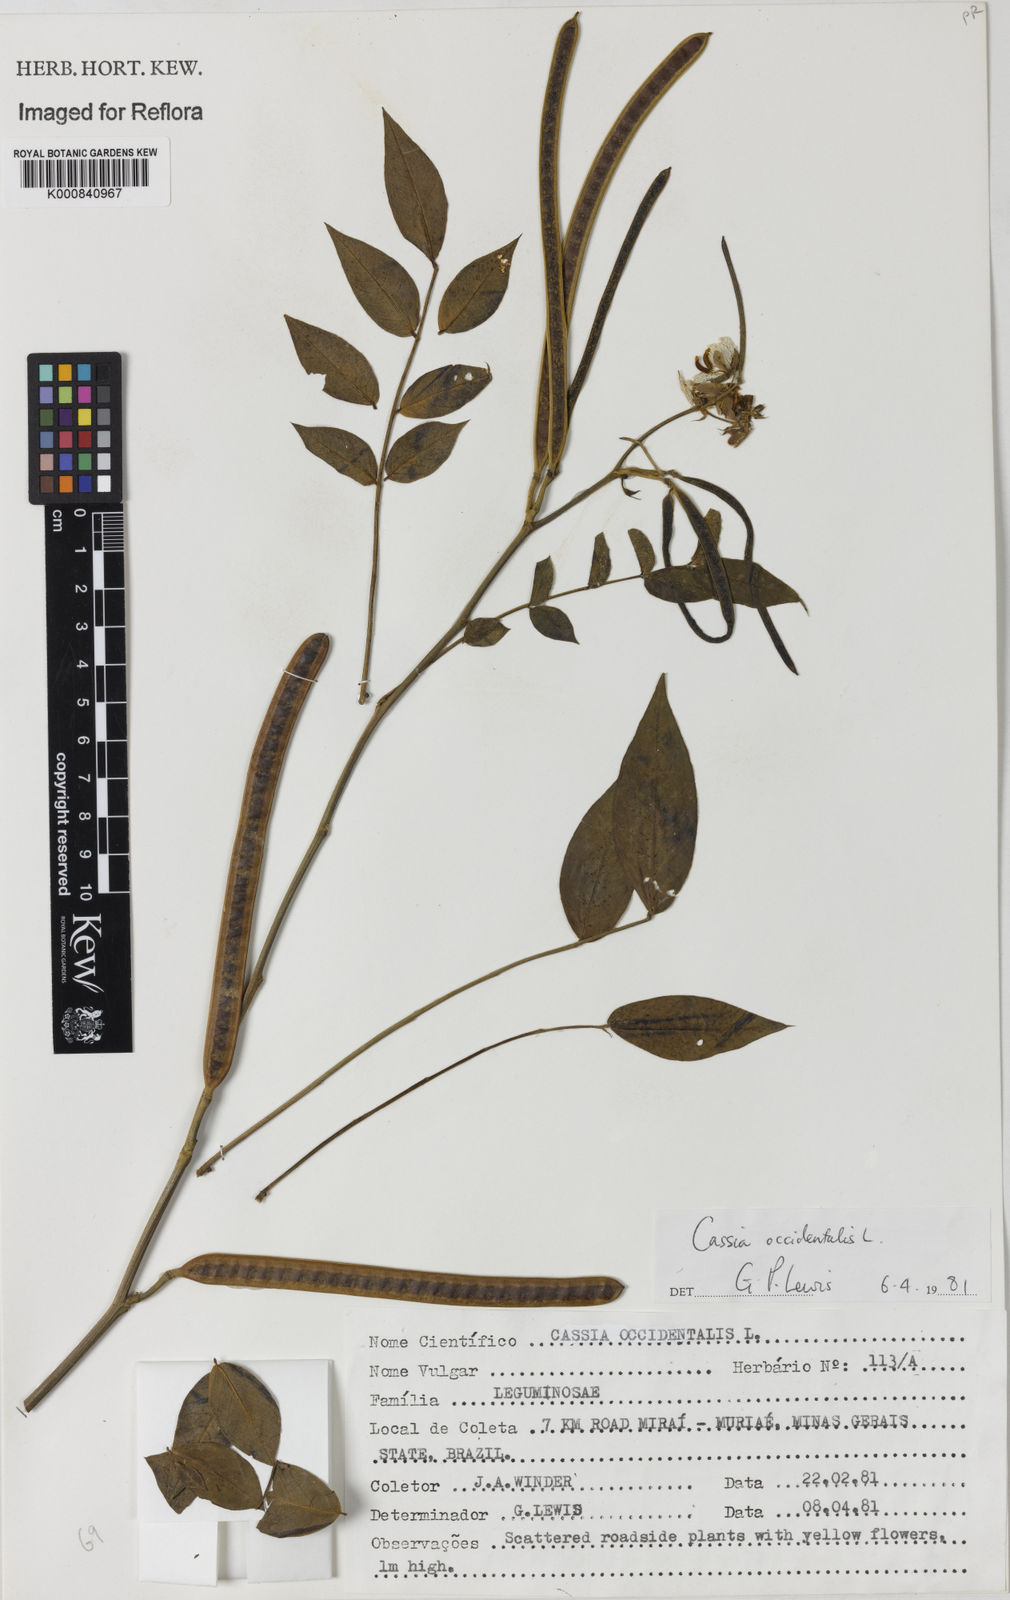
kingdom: Plantae
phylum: Tracheophyta
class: Magnoliopsida
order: Fabales
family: Fabaceae
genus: Senna
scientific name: Senna occidentalis
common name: Septicweed
